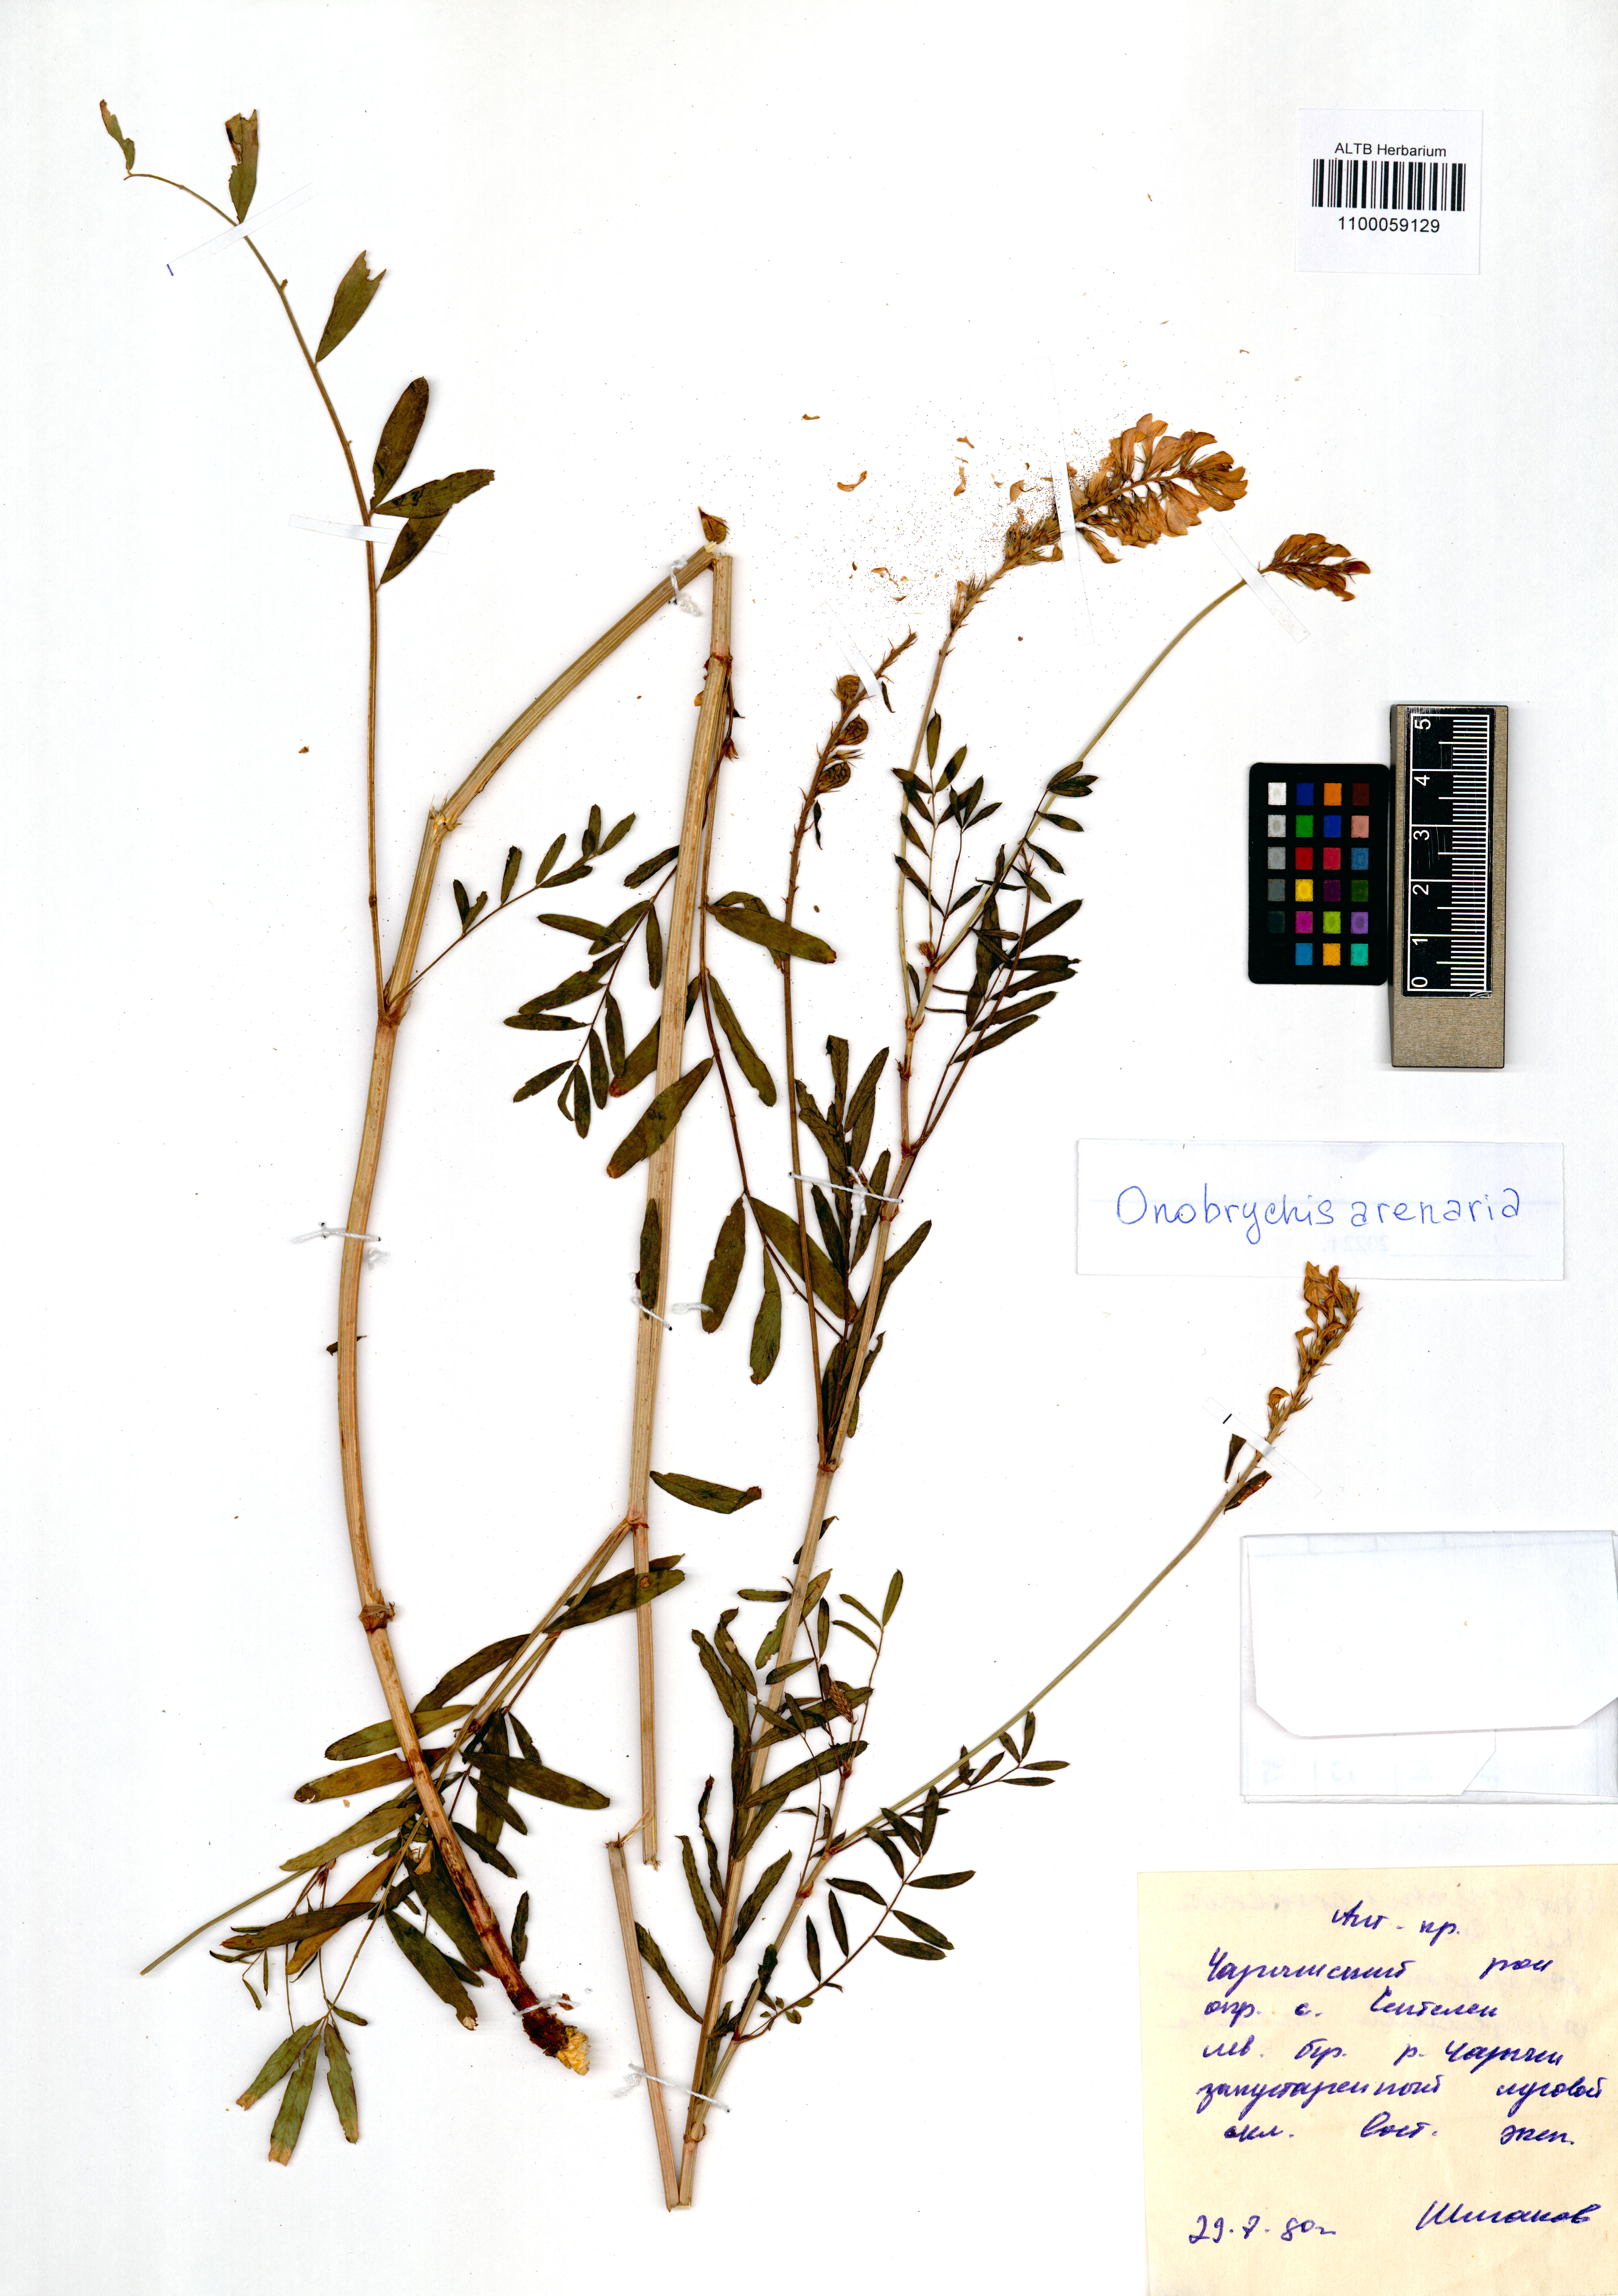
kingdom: Plantae
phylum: Tracheophyta
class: Magnoliopsida
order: Fabales
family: Fabaceae
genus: Onobrychis
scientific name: Onobrychis arenaria
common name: Sand esparcet
